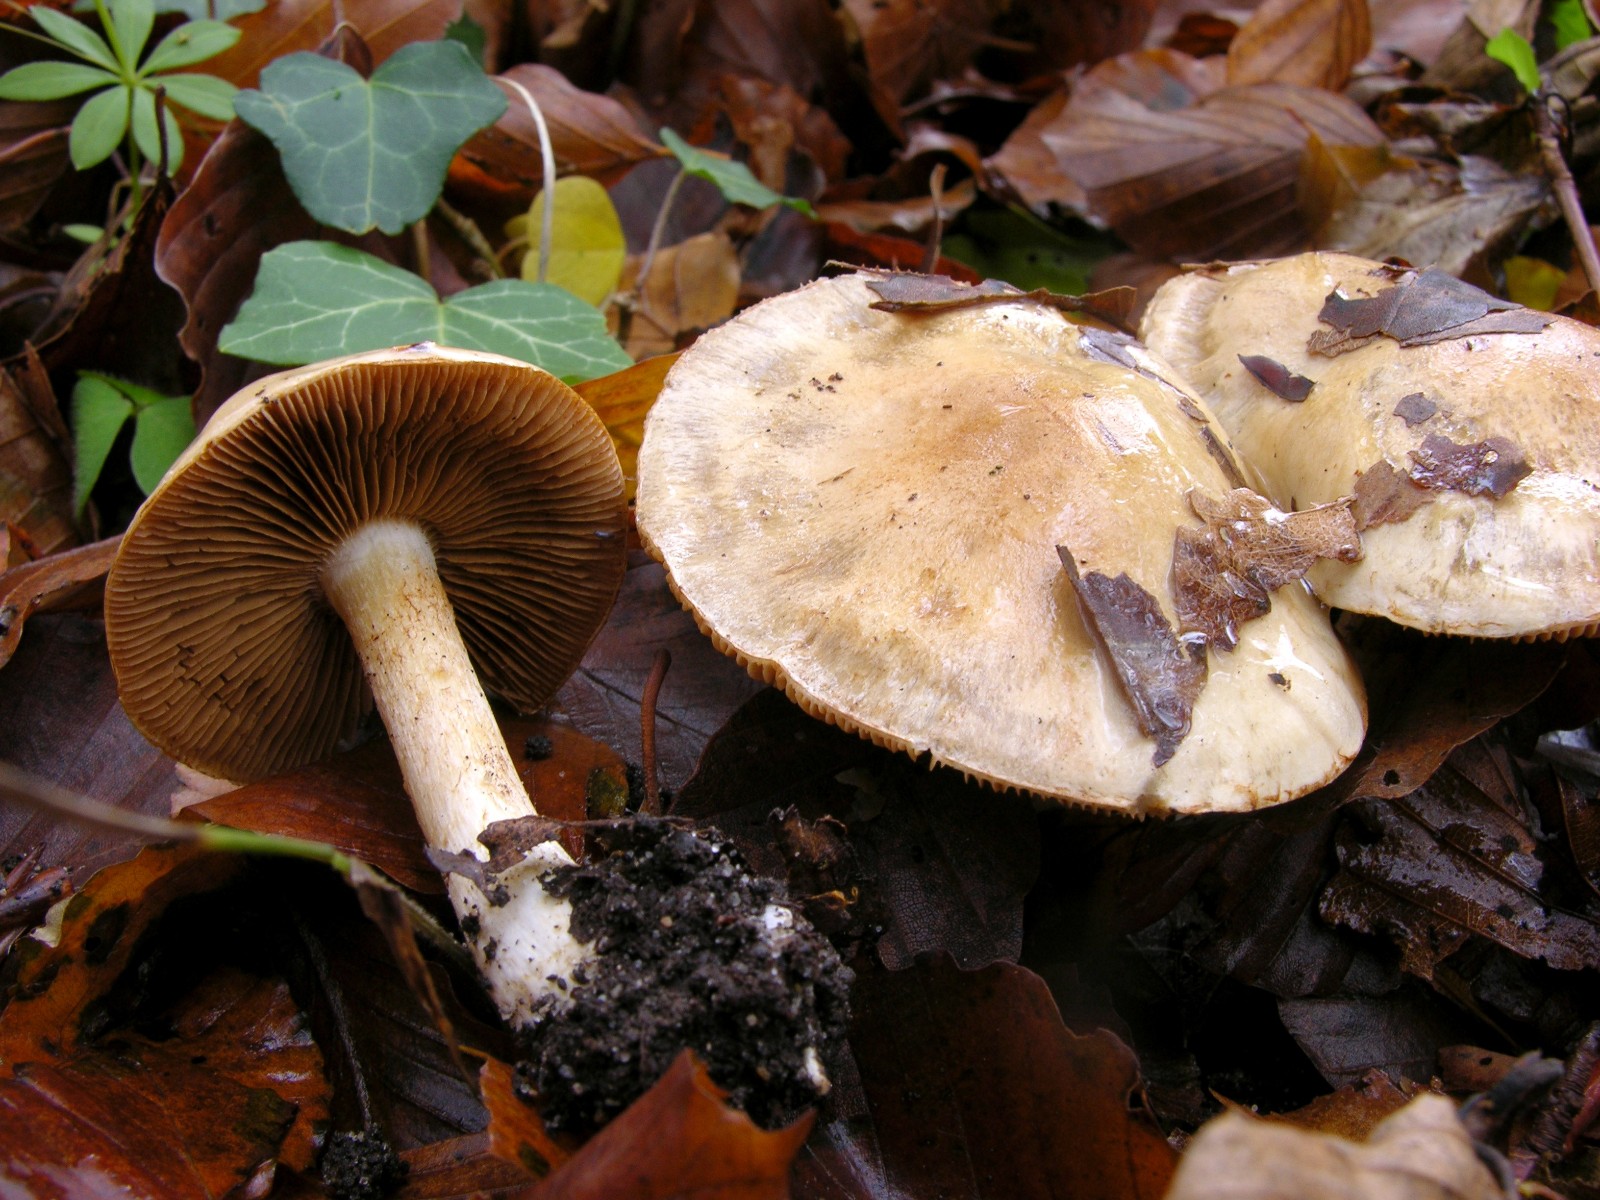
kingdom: Fungi
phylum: Basidiomycota
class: Agaricomycetes
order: Agaricales
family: Cortinariaceae
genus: Phlegmacium
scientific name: Phlegmacium cliduchus
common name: majs-slørhat
